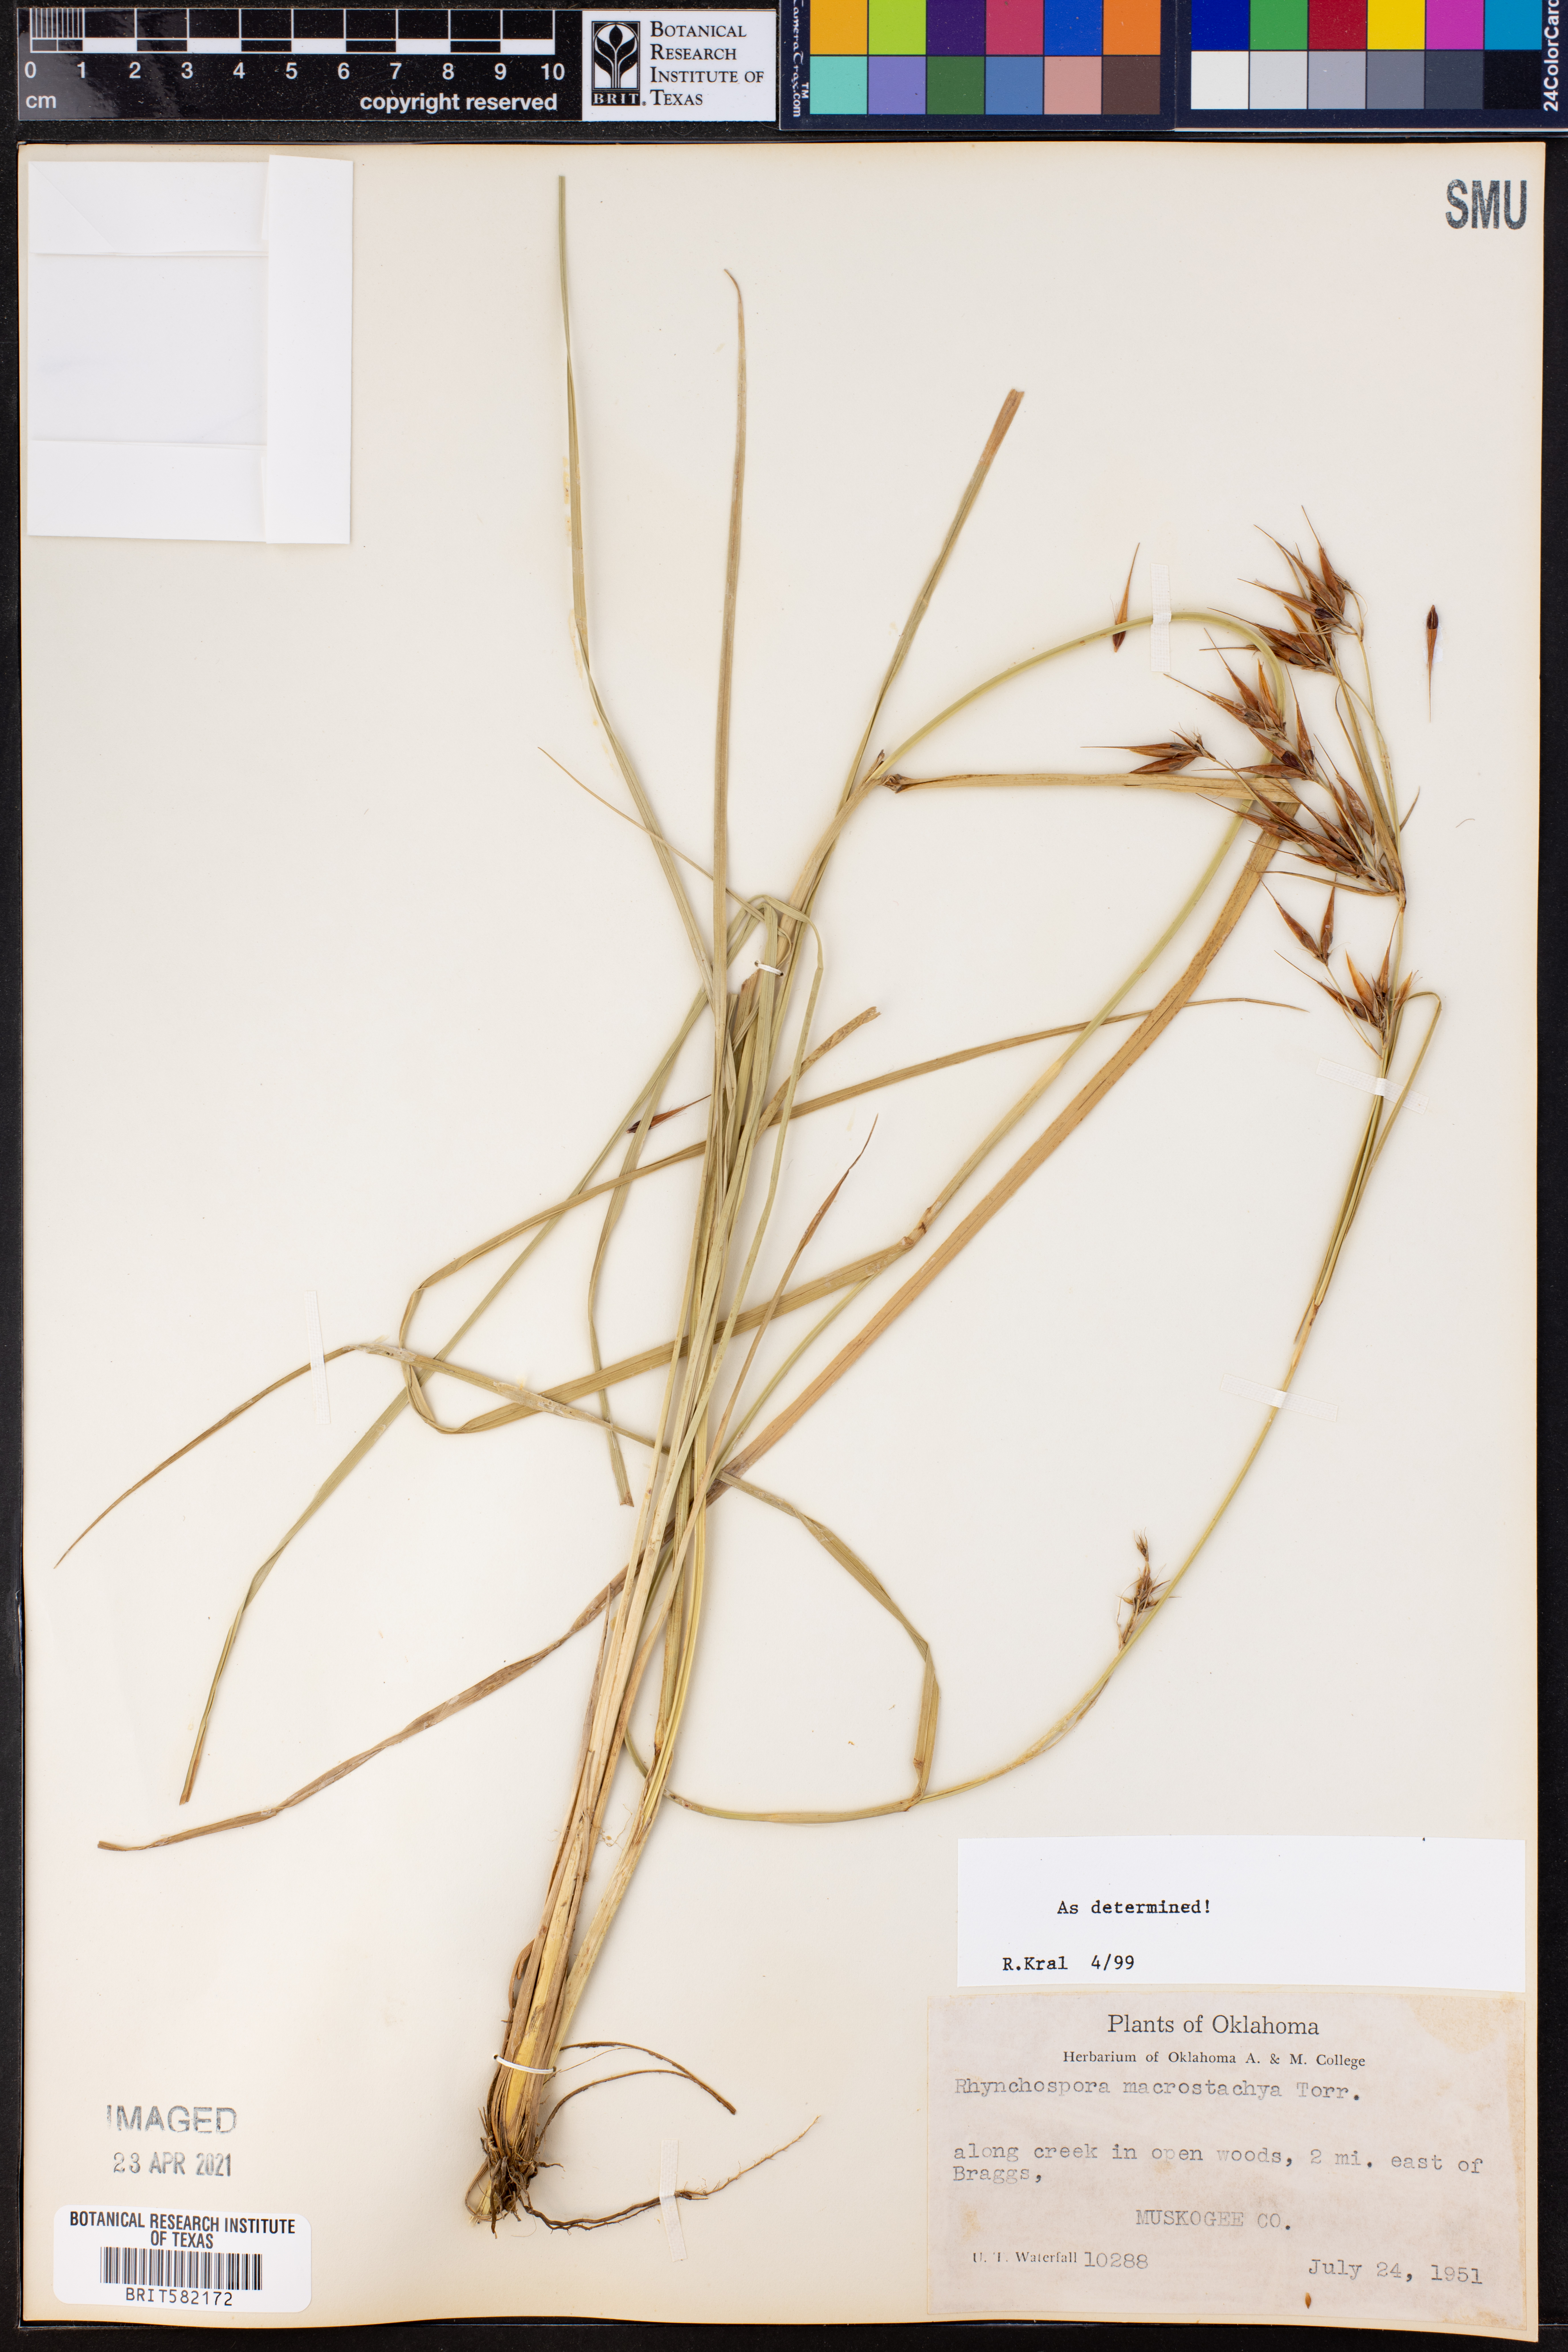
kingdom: Plantae
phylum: Tracheophyta
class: Liliopsida
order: Poales
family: Cyperaceae
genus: Rhynchospora
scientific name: Rhynchospora macrostachya
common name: Tall beakrush
